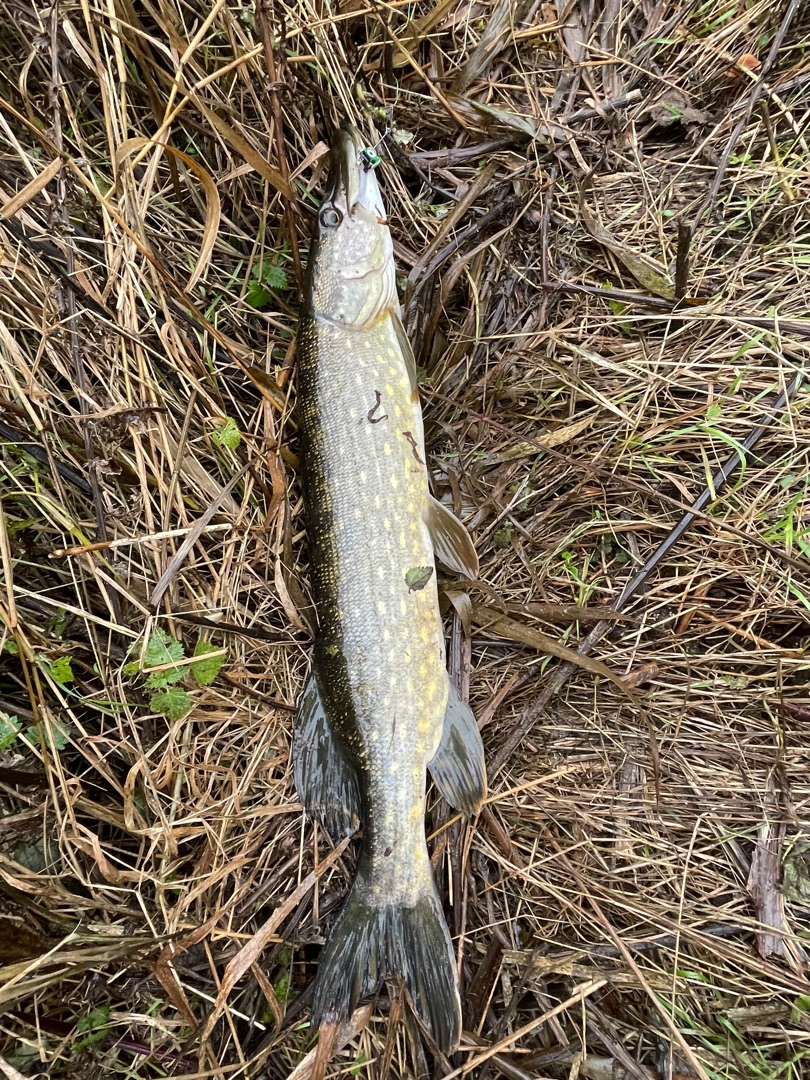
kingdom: Animalia
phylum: Chordata
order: Esociformes
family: Esocidae
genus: Esox
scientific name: Esox lucius
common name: Gedde
